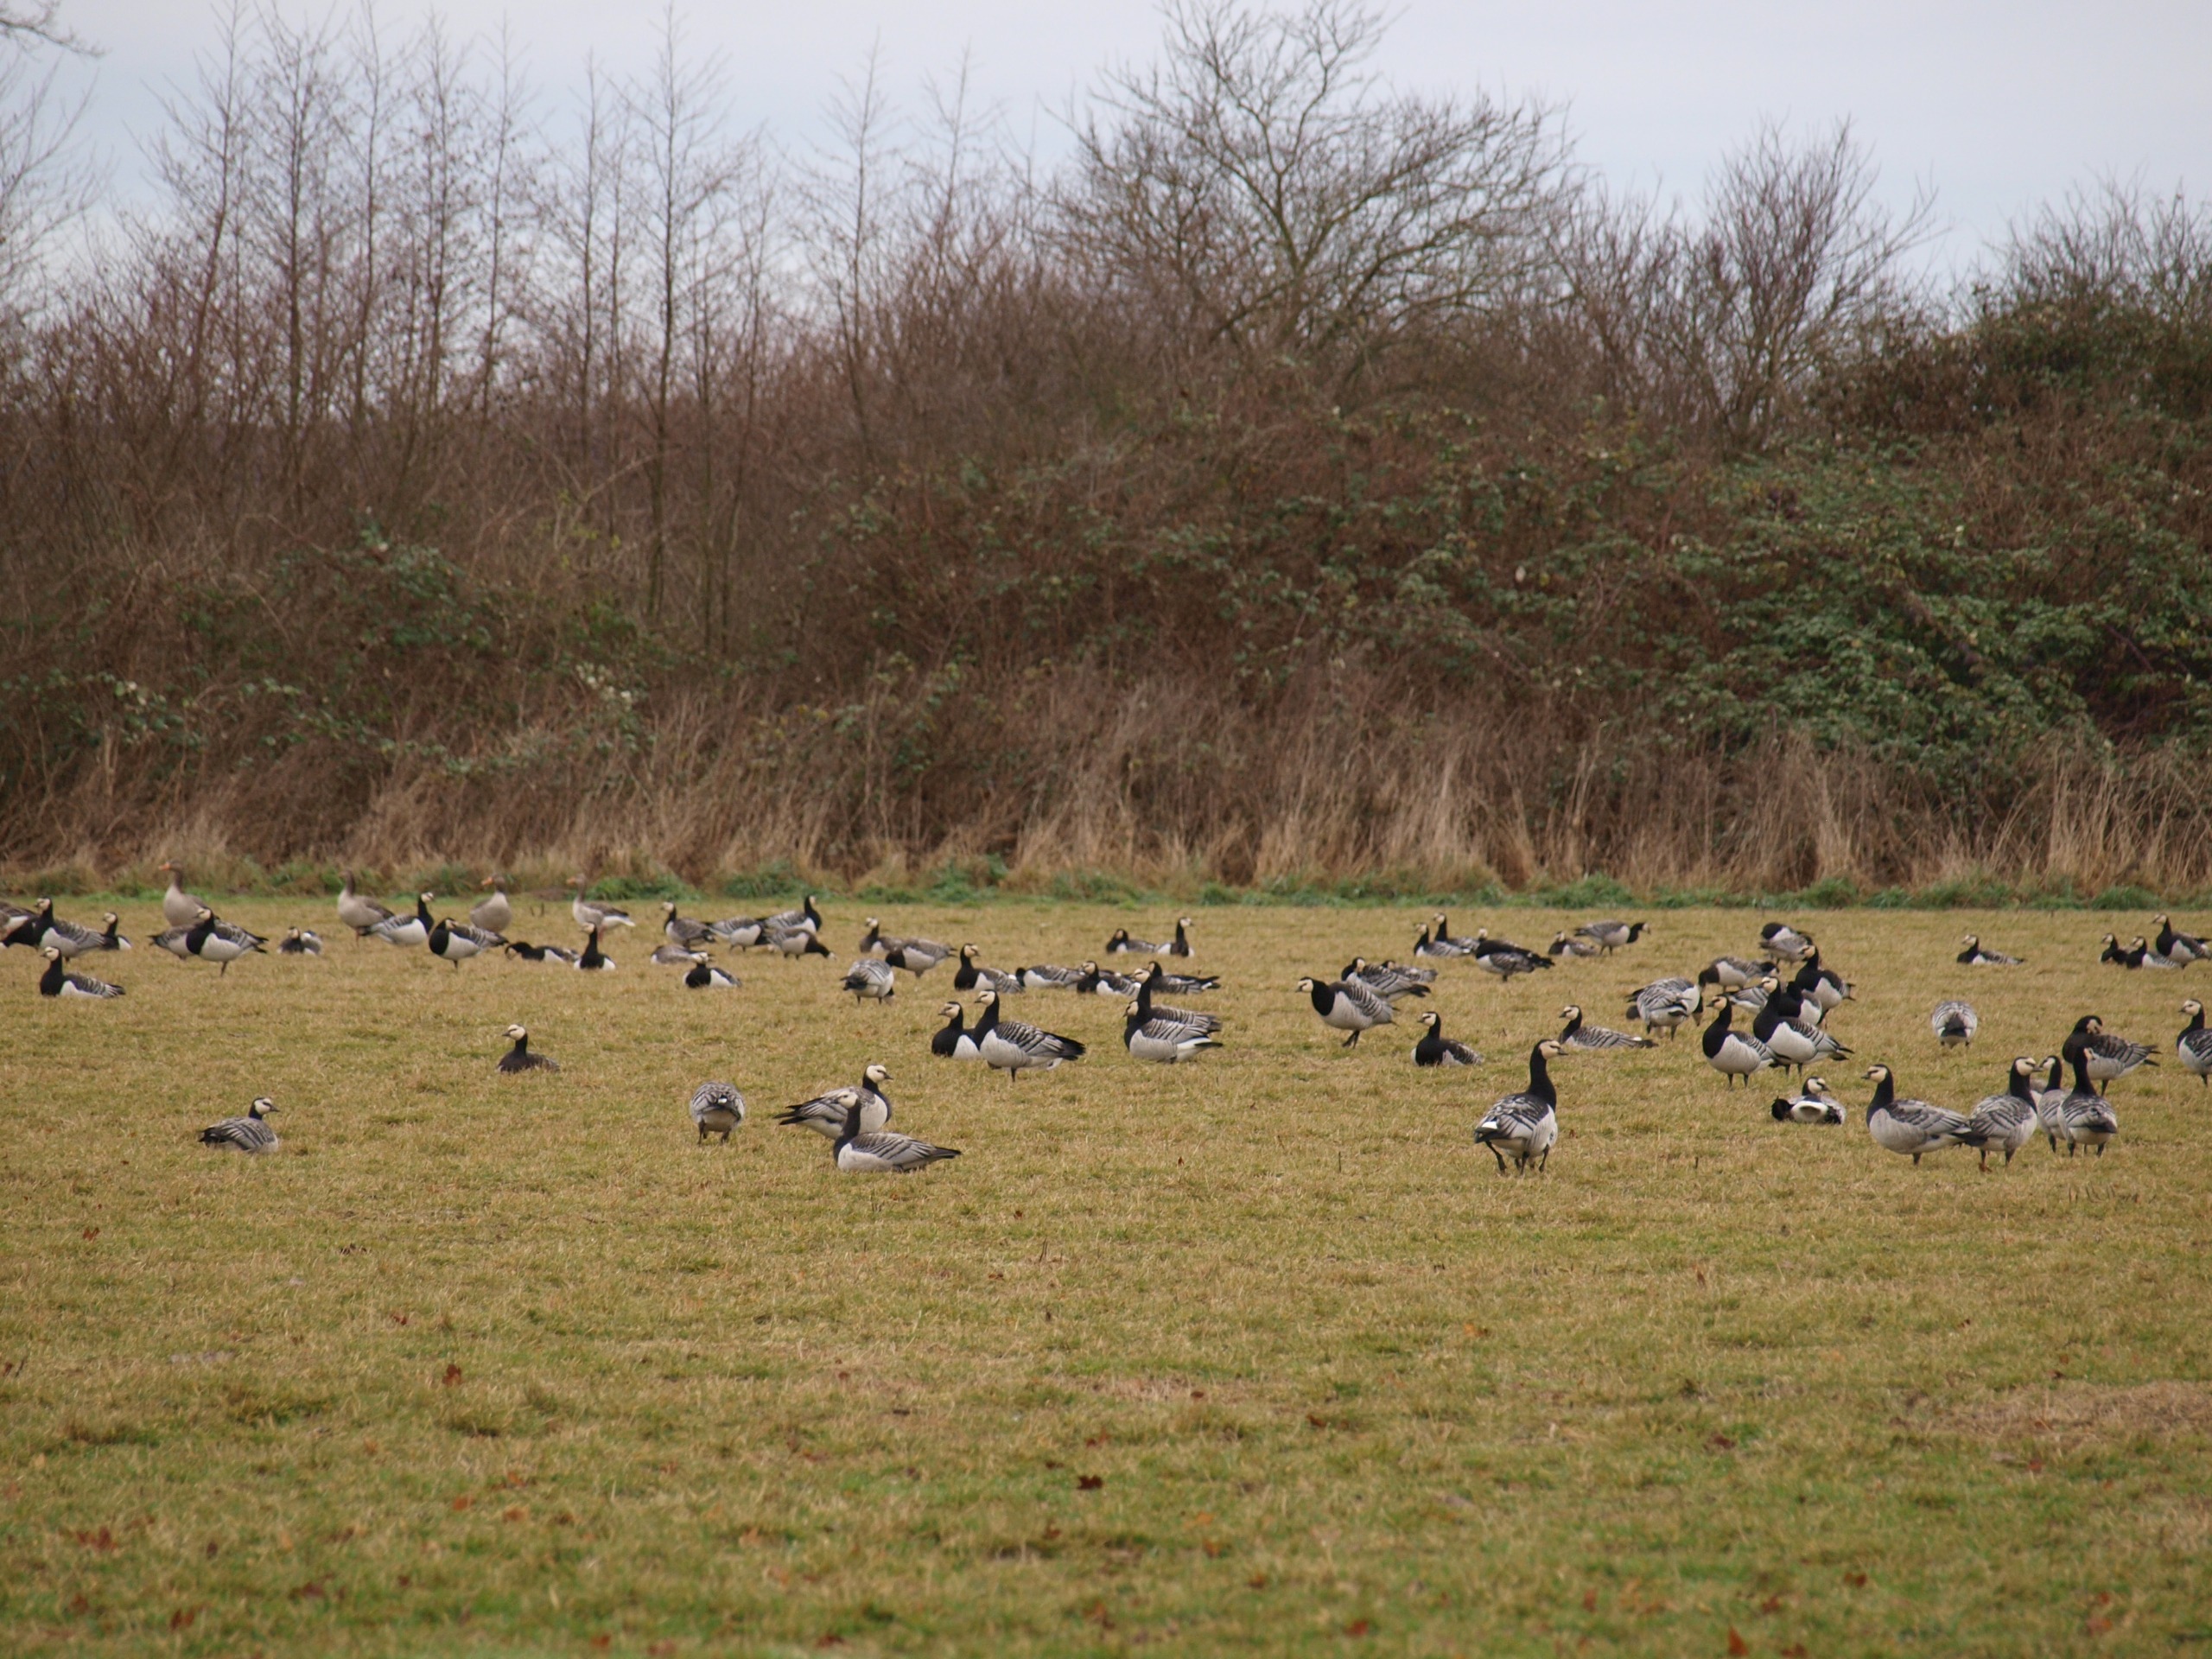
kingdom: Animalia
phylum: Chordata
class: Aves
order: Anseriformes
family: Anatidae
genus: Branta
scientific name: Branta leucopsis
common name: Bramgås
